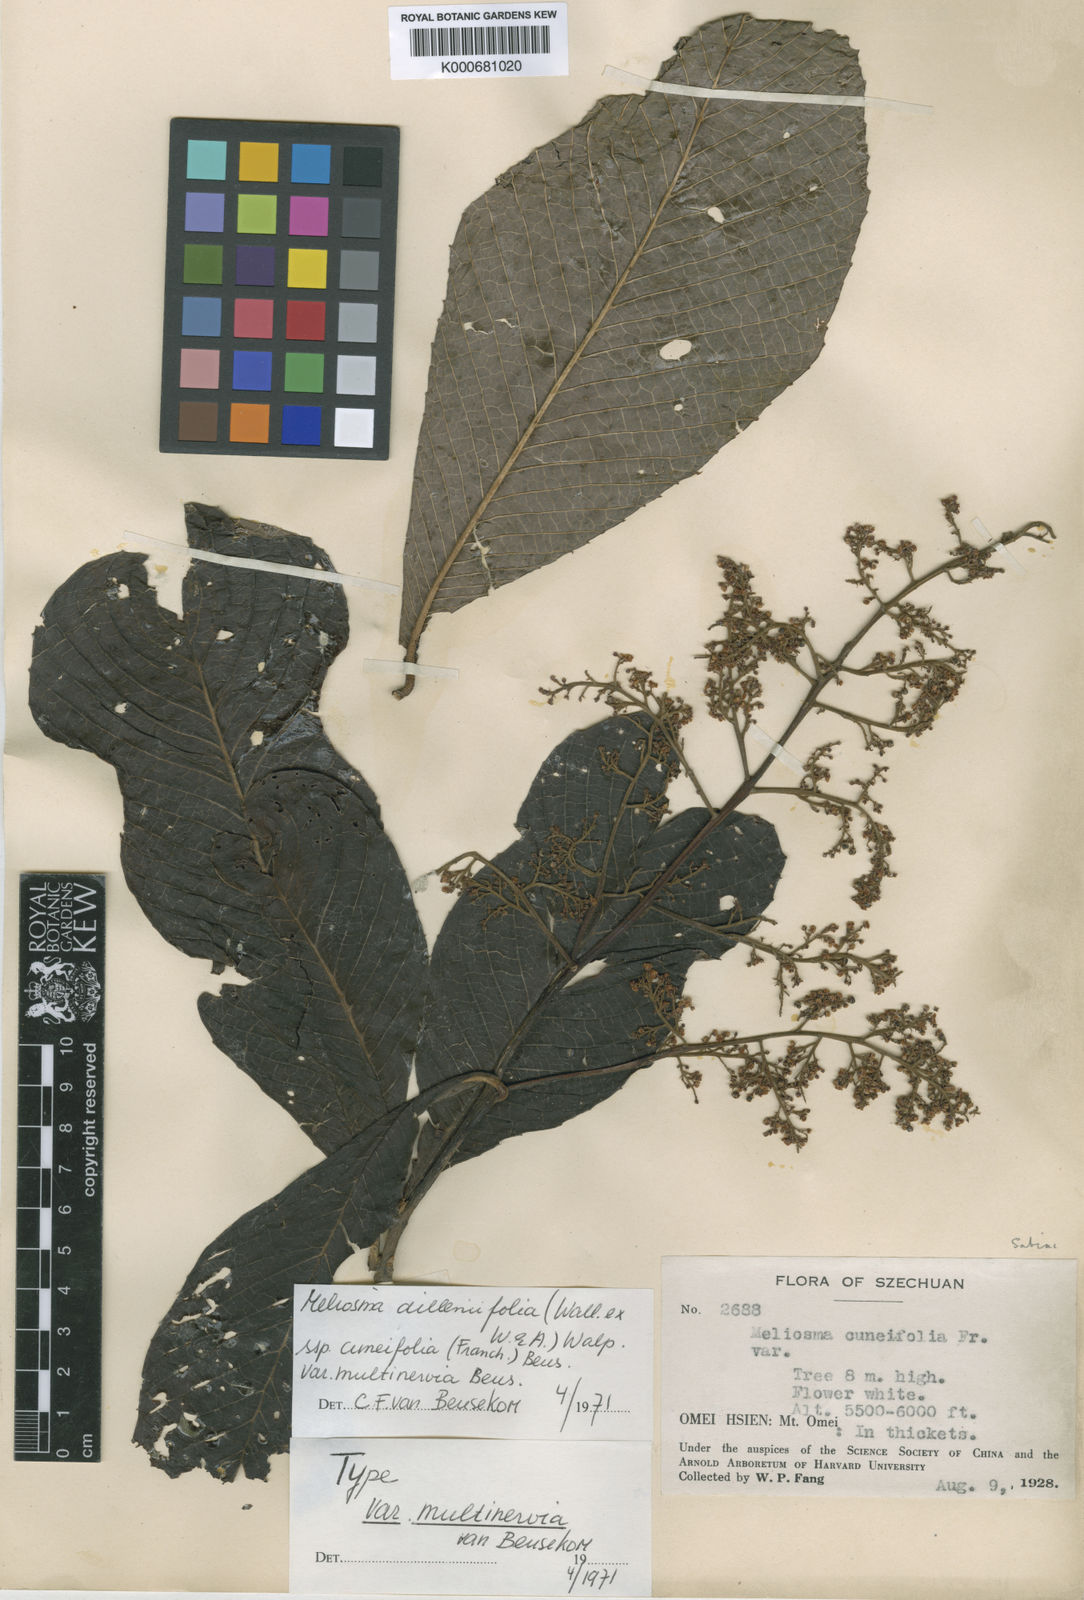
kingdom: Plantae
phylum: Tracheophyta
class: Magnoliopsida
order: Proteales
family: Sabiaceae
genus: Meliosma
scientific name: Meliosma
